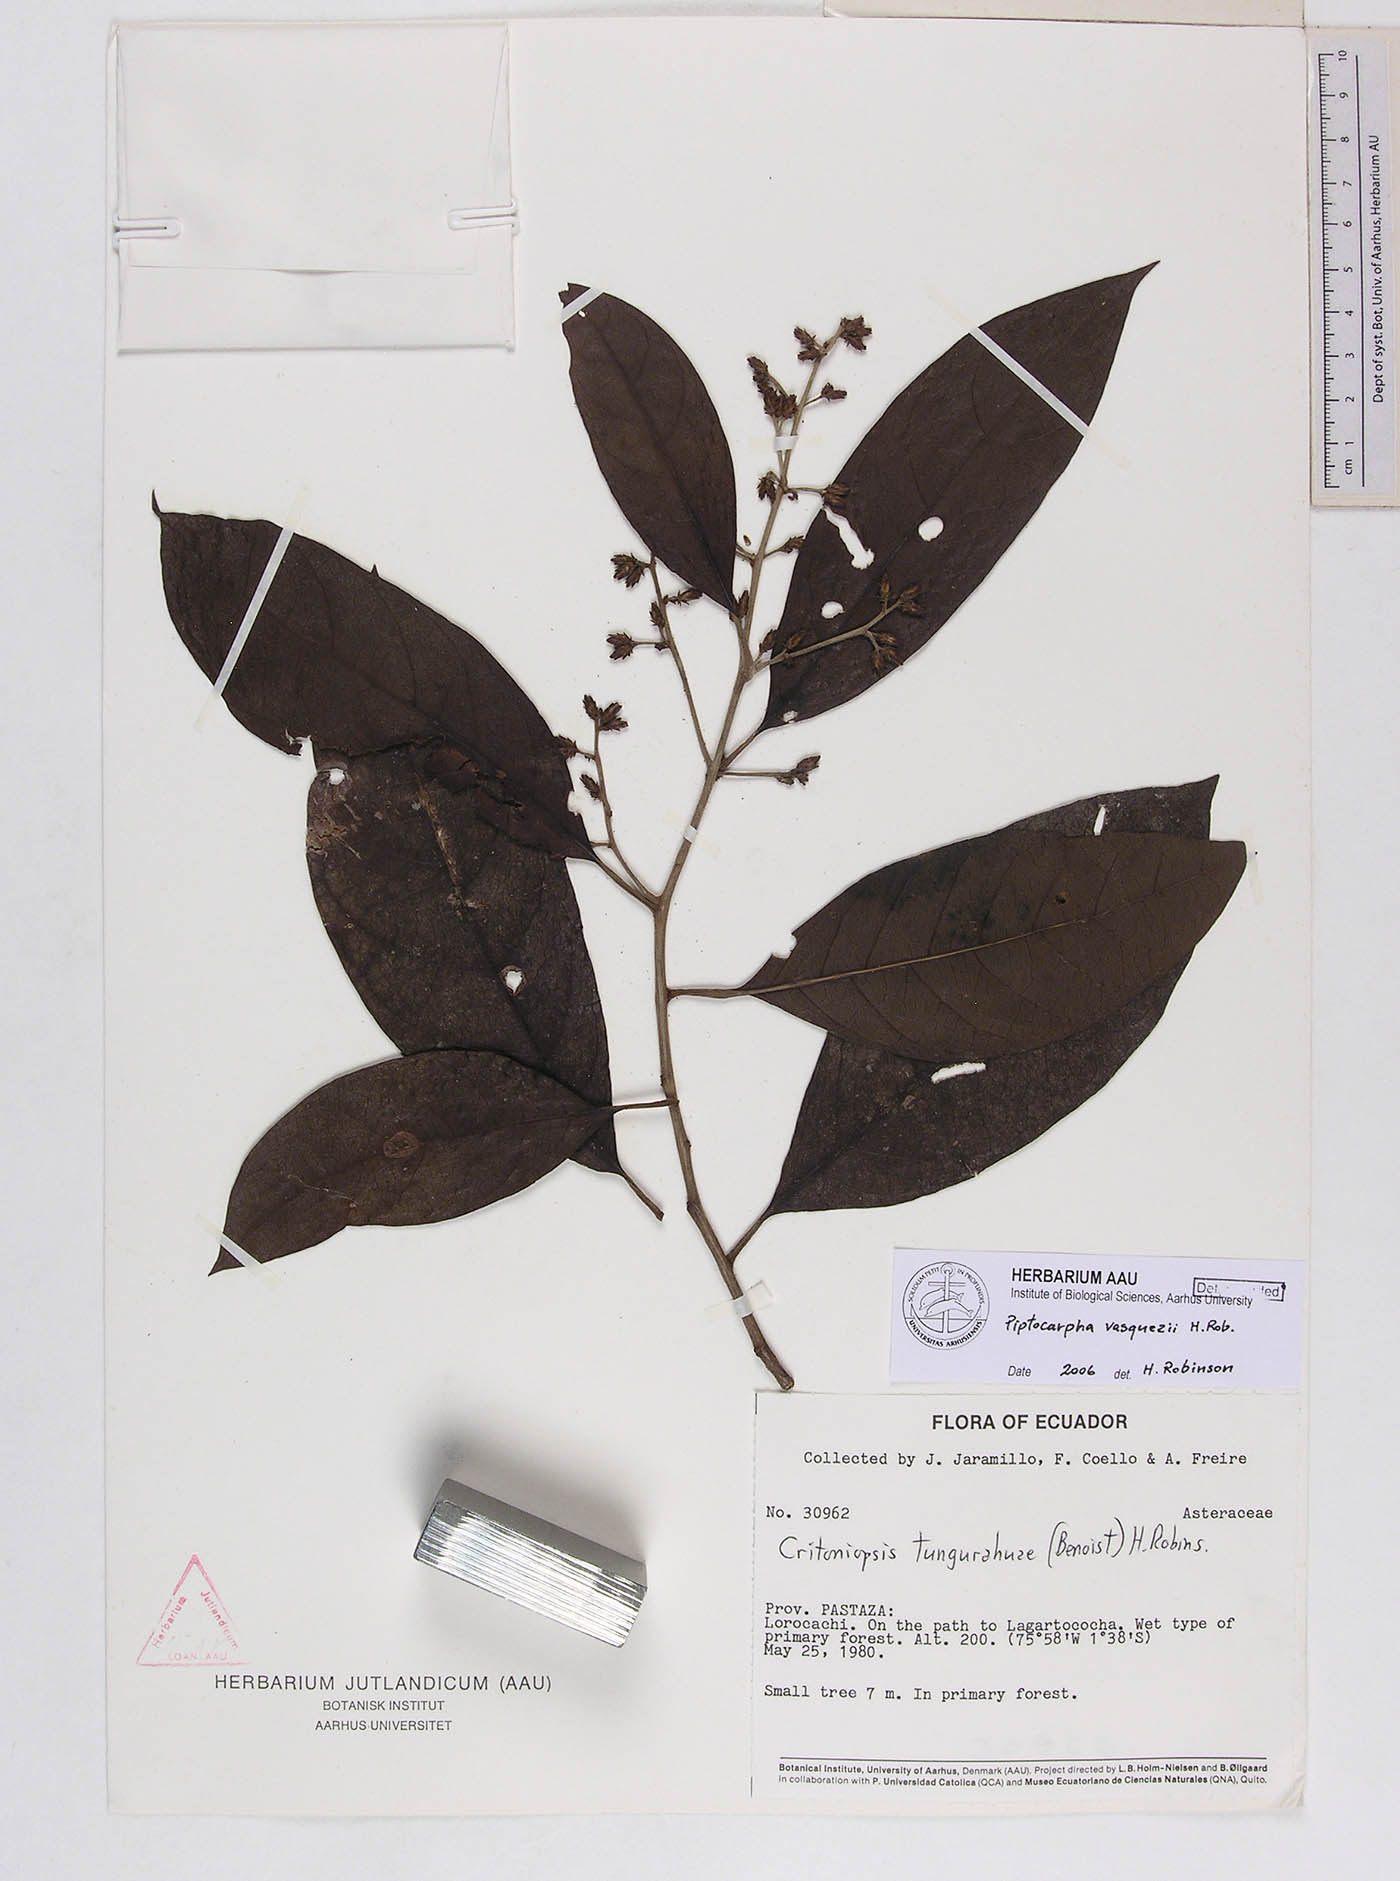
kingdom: Plantae
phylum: Tracheophyta
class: Magnoliopsida
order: Asterales
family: Asteraceae
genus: Piptocarpha
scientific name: Piptocarpha vasquezii
